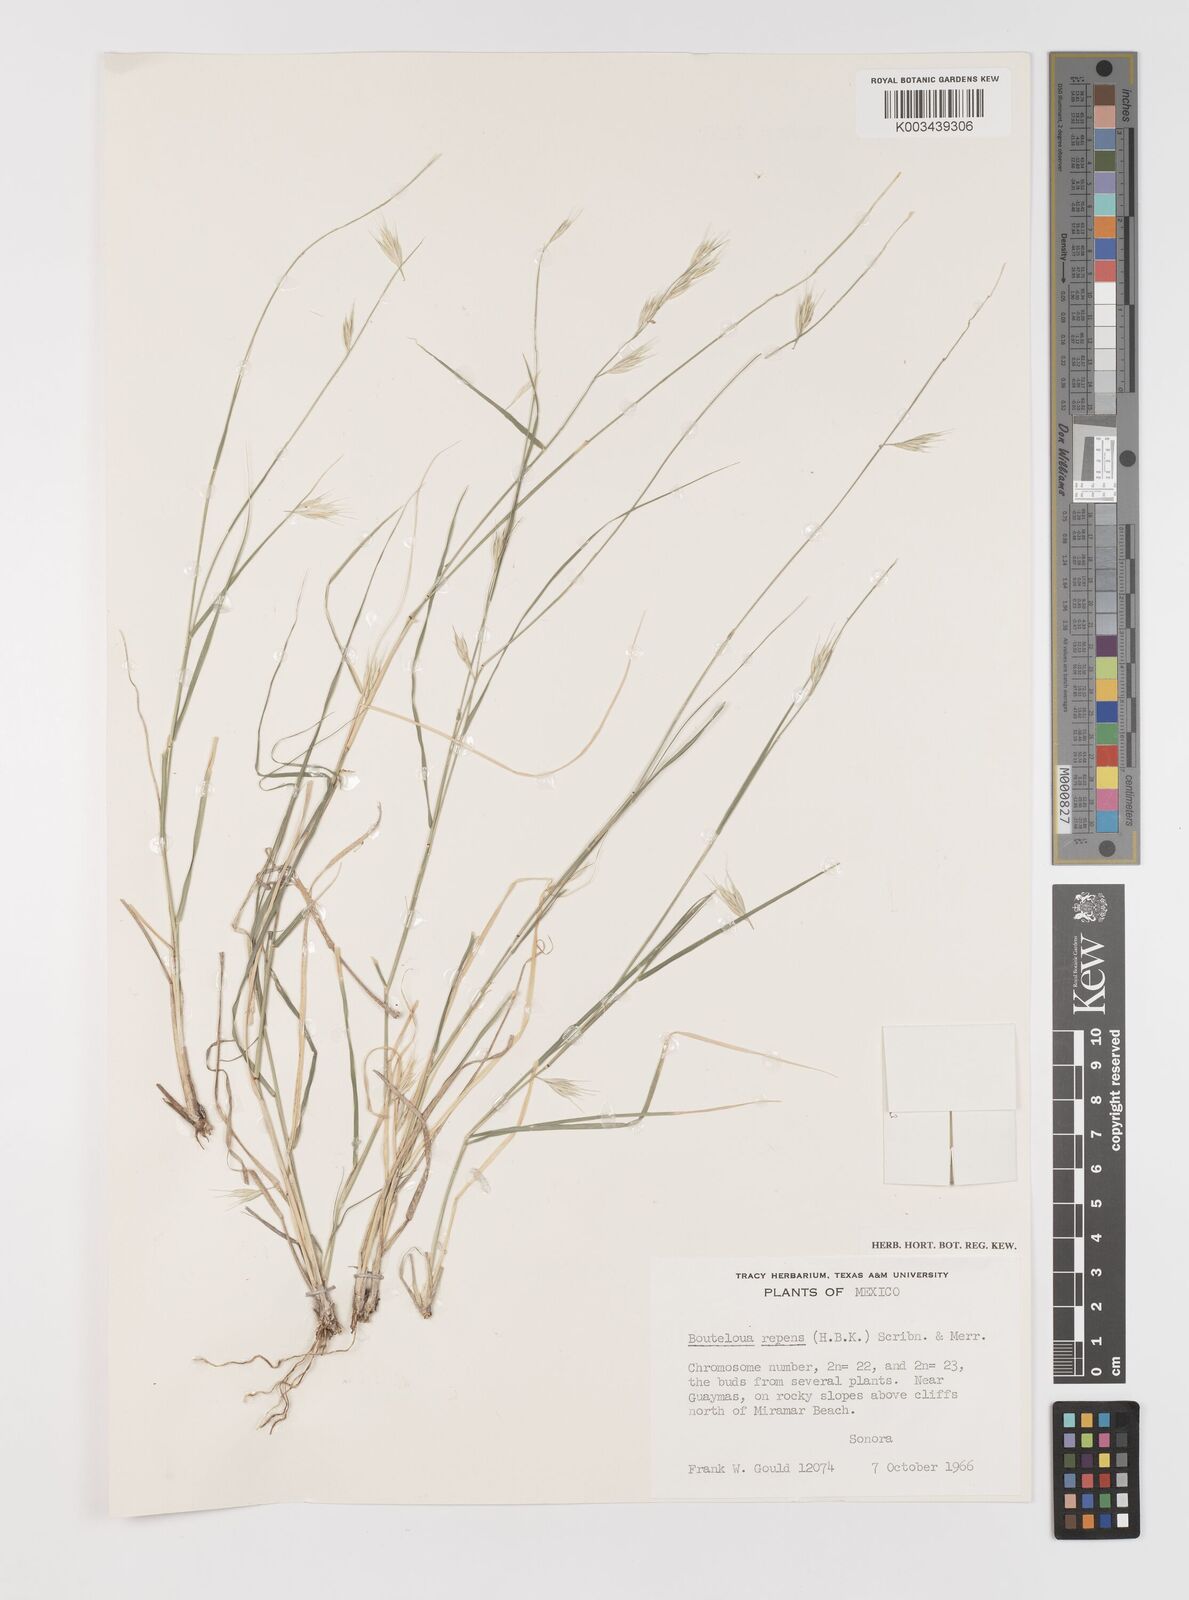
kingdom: Plantae
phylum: Tracheophyta
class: Liliopsida
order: Poales
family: Poaceae
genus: Bouteloua
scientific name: Bouteloua repens
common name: Slender grama
